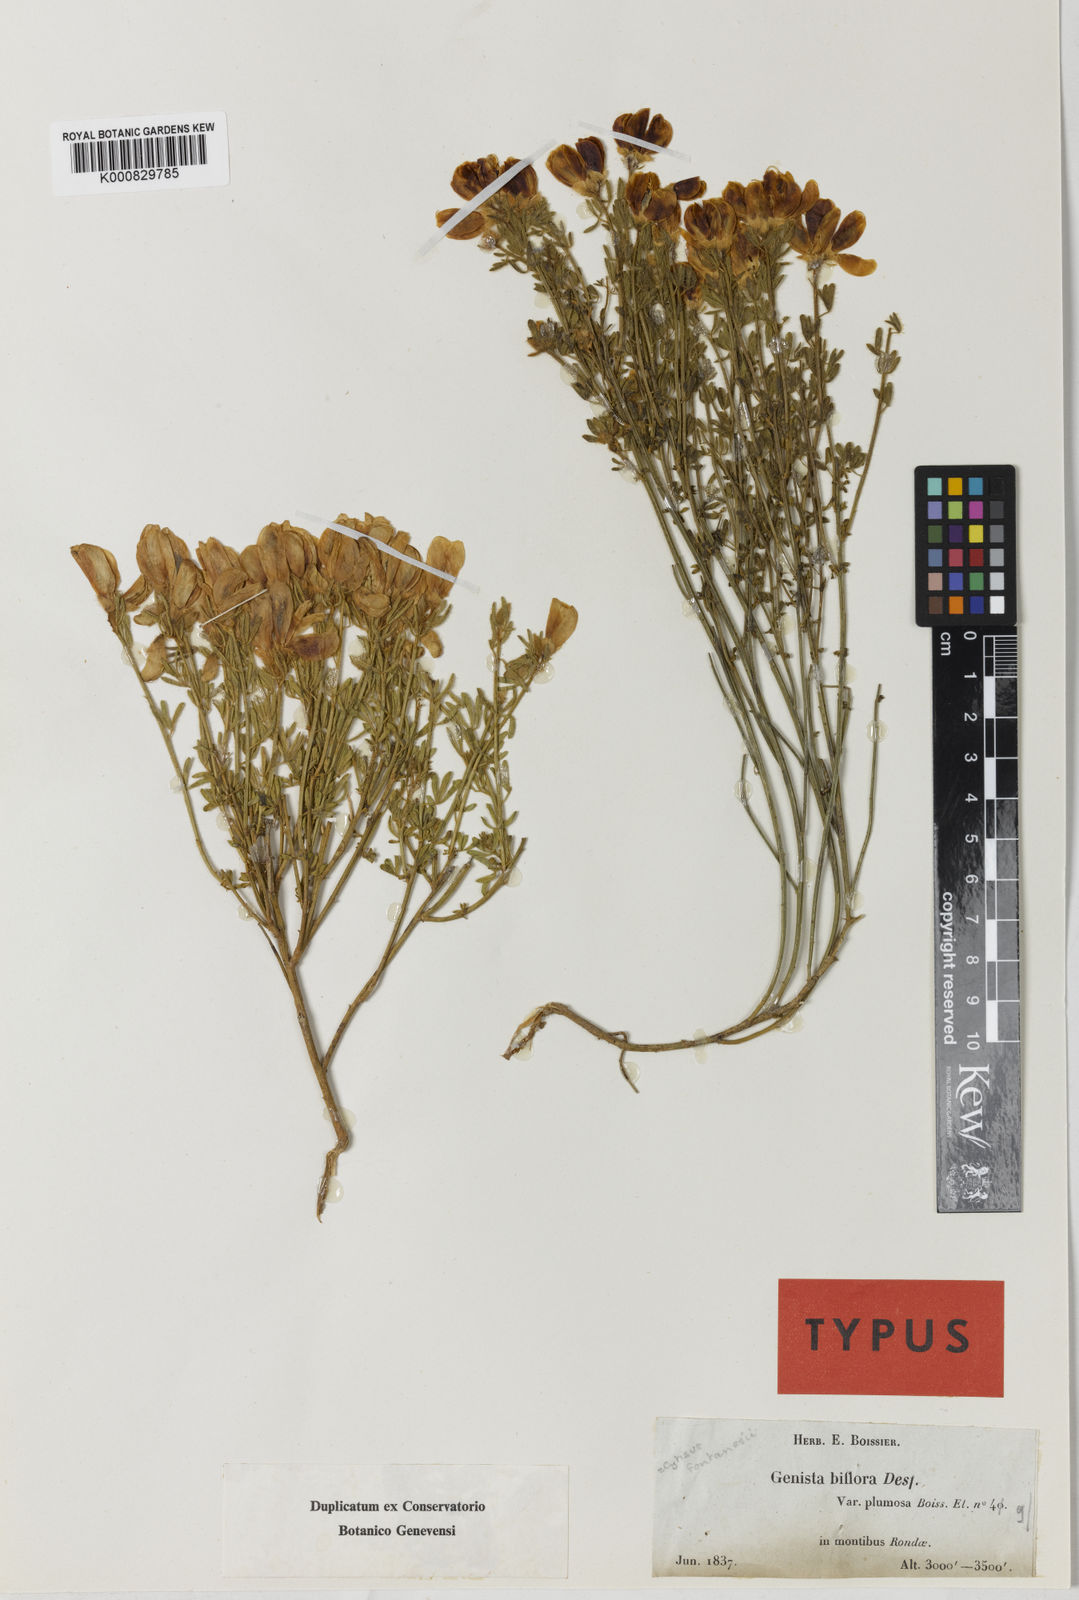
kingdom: Plantae
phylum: Tracheophyta
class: Magnoliopsida
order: Fabales
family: Fabaceae
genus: Cytisus
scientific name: Cytisus fontanesii
